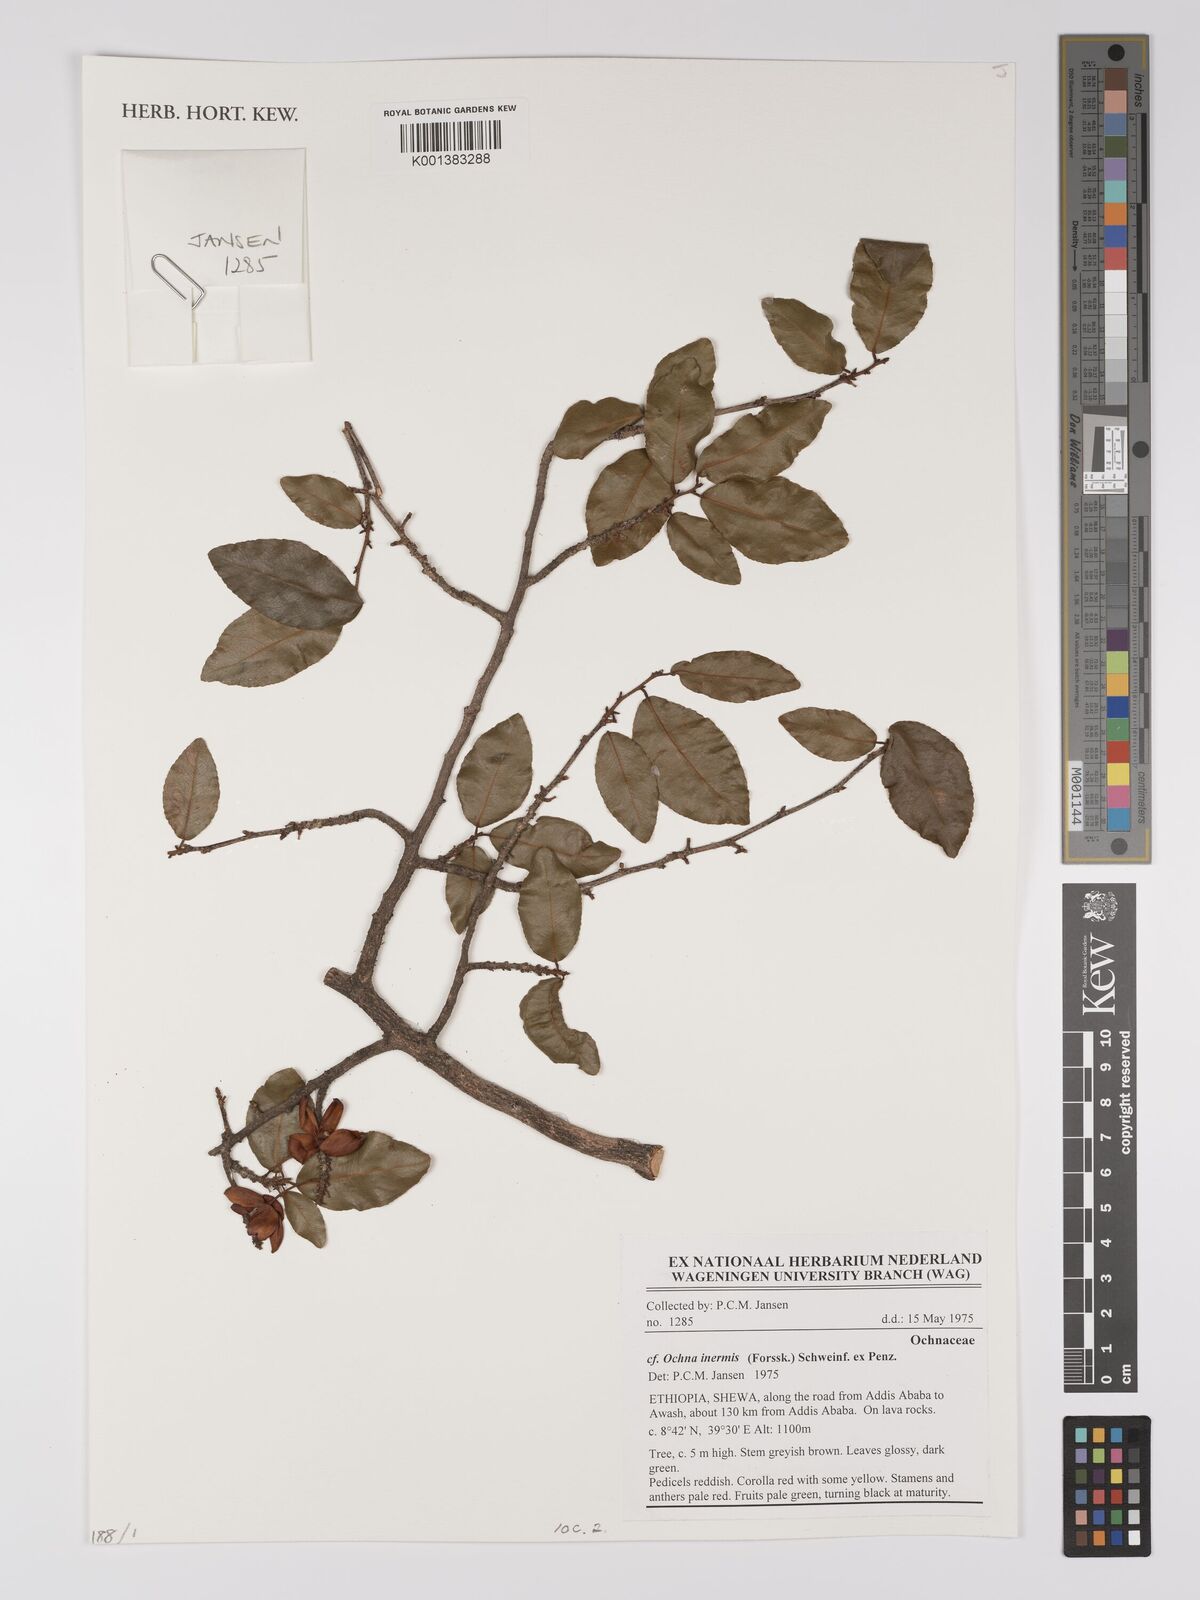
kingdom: Plantae
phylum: Tracheophyta
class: Magnoliopsida
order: Malpighiales
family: Ochnaceae
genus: Ochna
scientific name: Ochna inermis
